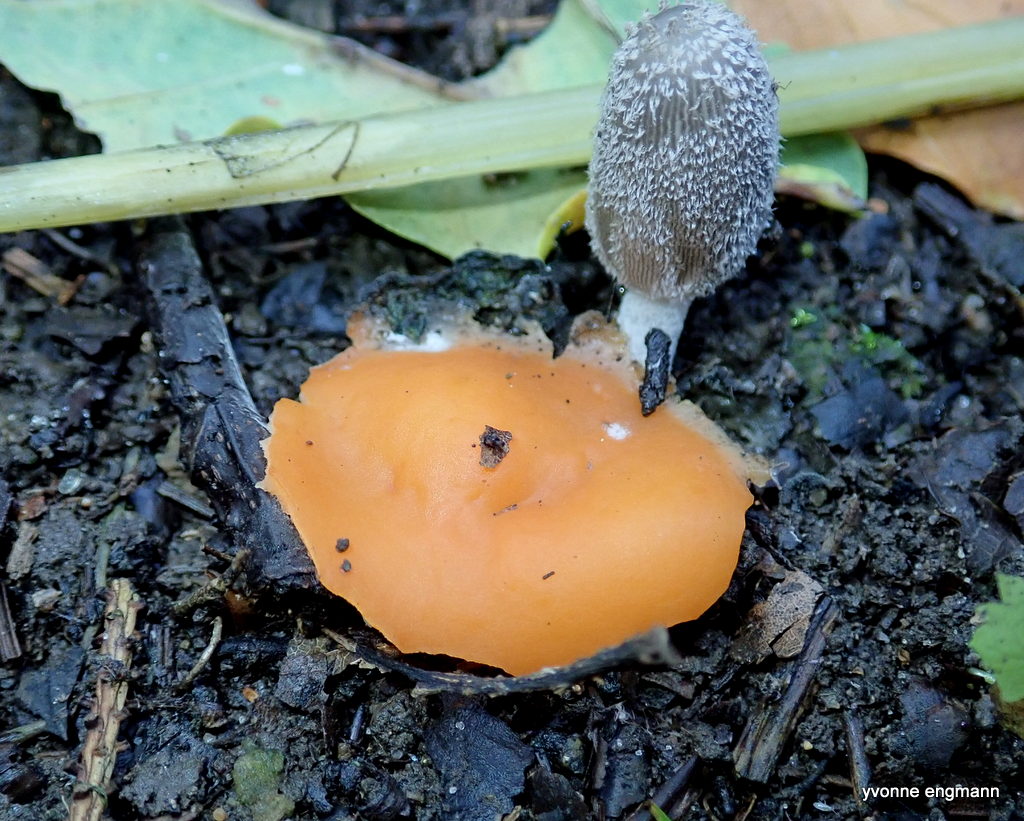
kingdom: Fungi
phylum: Ascomycota
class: Pezizomycetes
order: Pezizales
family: Pyronemataceae
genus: Aleuria
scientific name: Aleuria aurantia
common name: almindelig orangebæger
